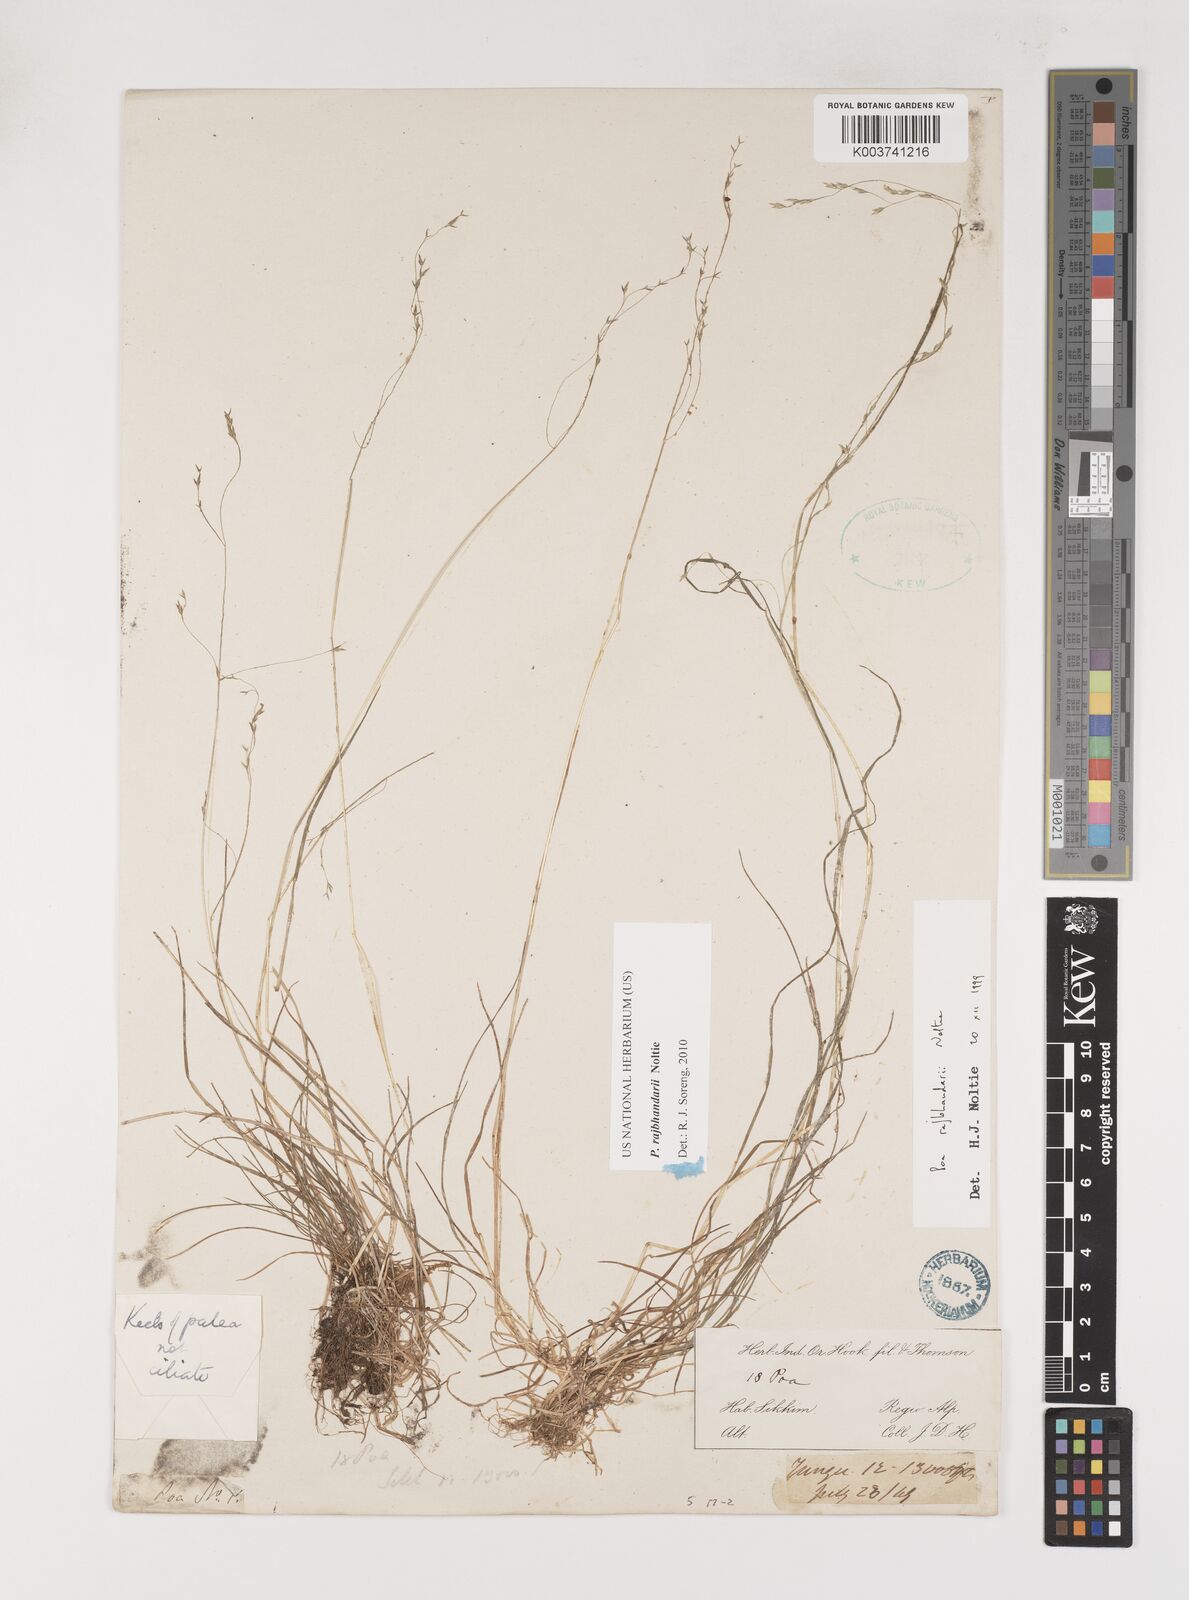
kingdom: Plantae
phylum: Tracheophyta
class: Liliopsida
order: Poales
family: Poaceae
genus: Poa
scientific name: Poa rajbhandarii
